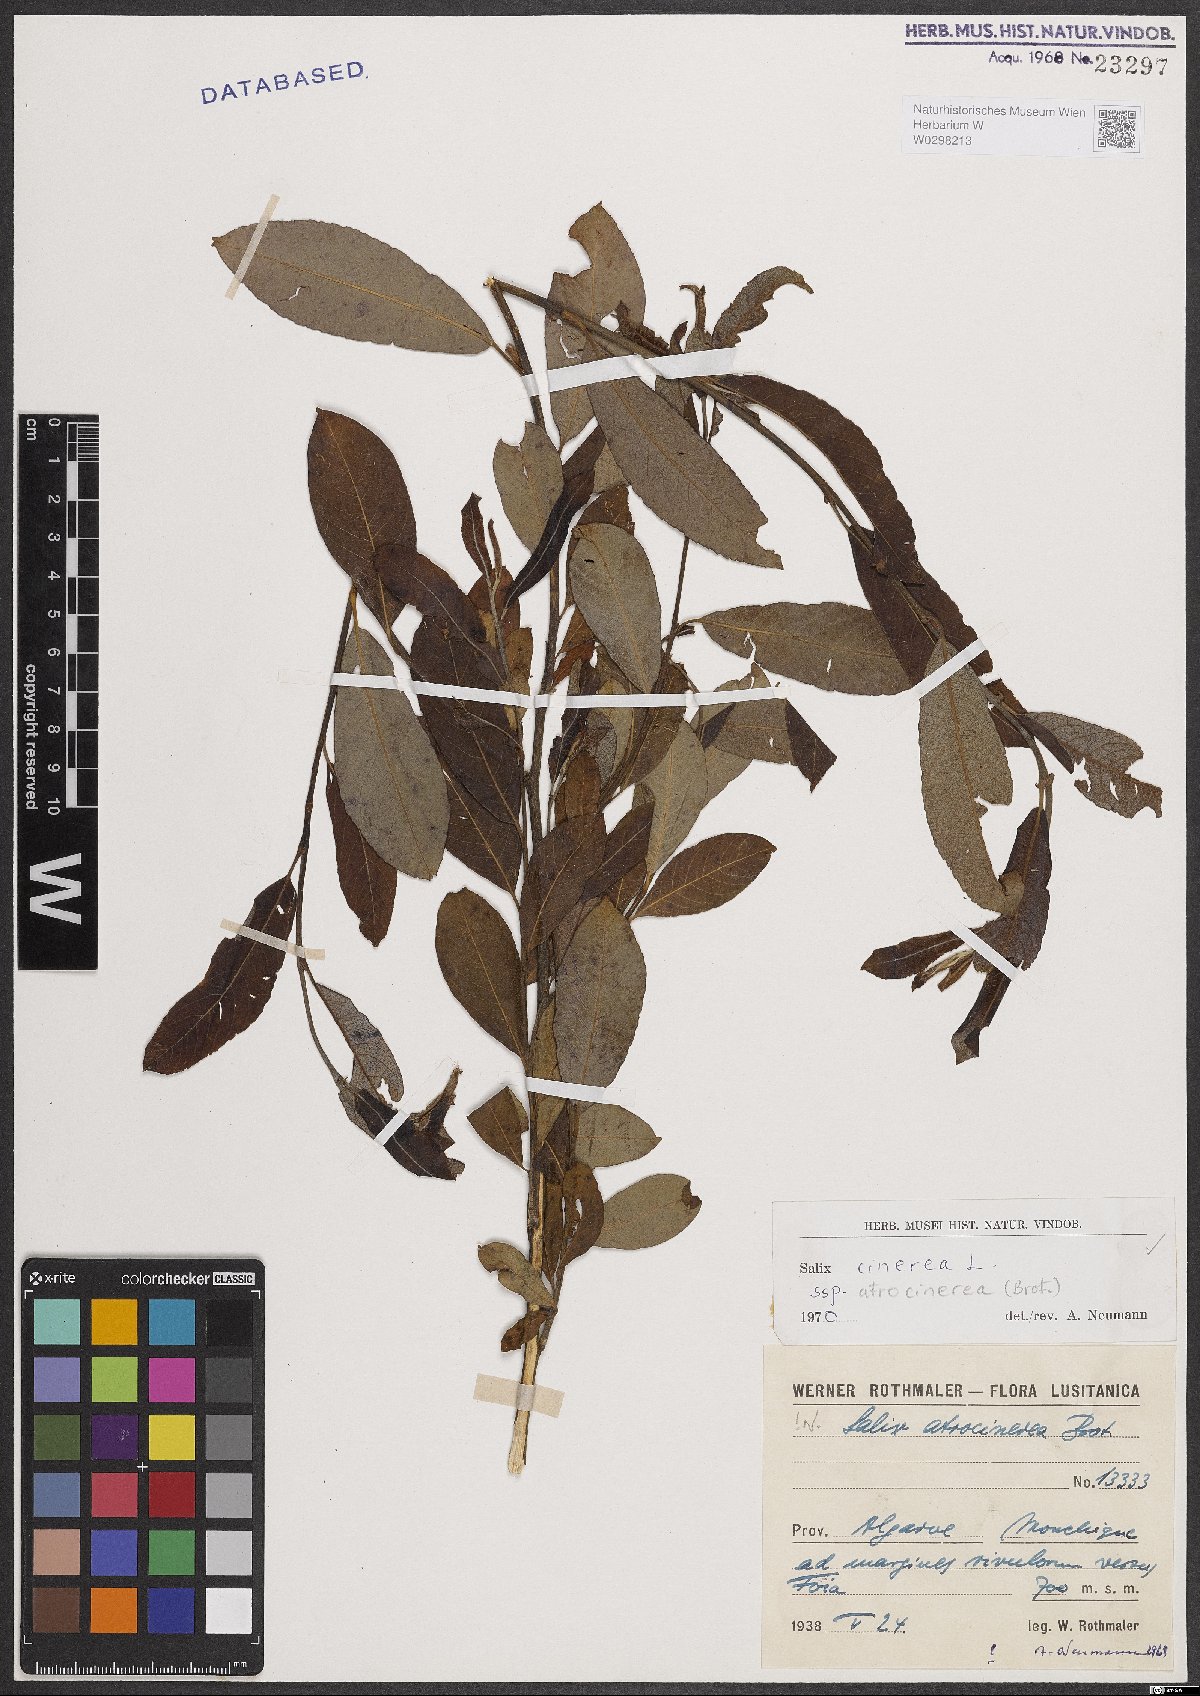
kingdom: Plantae
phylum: Tracheophyta
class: Magnoliopsida
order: Malpighiales
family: Salicaceae
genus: Salix
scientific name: Salix atrocinerea
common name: Rusty willow
